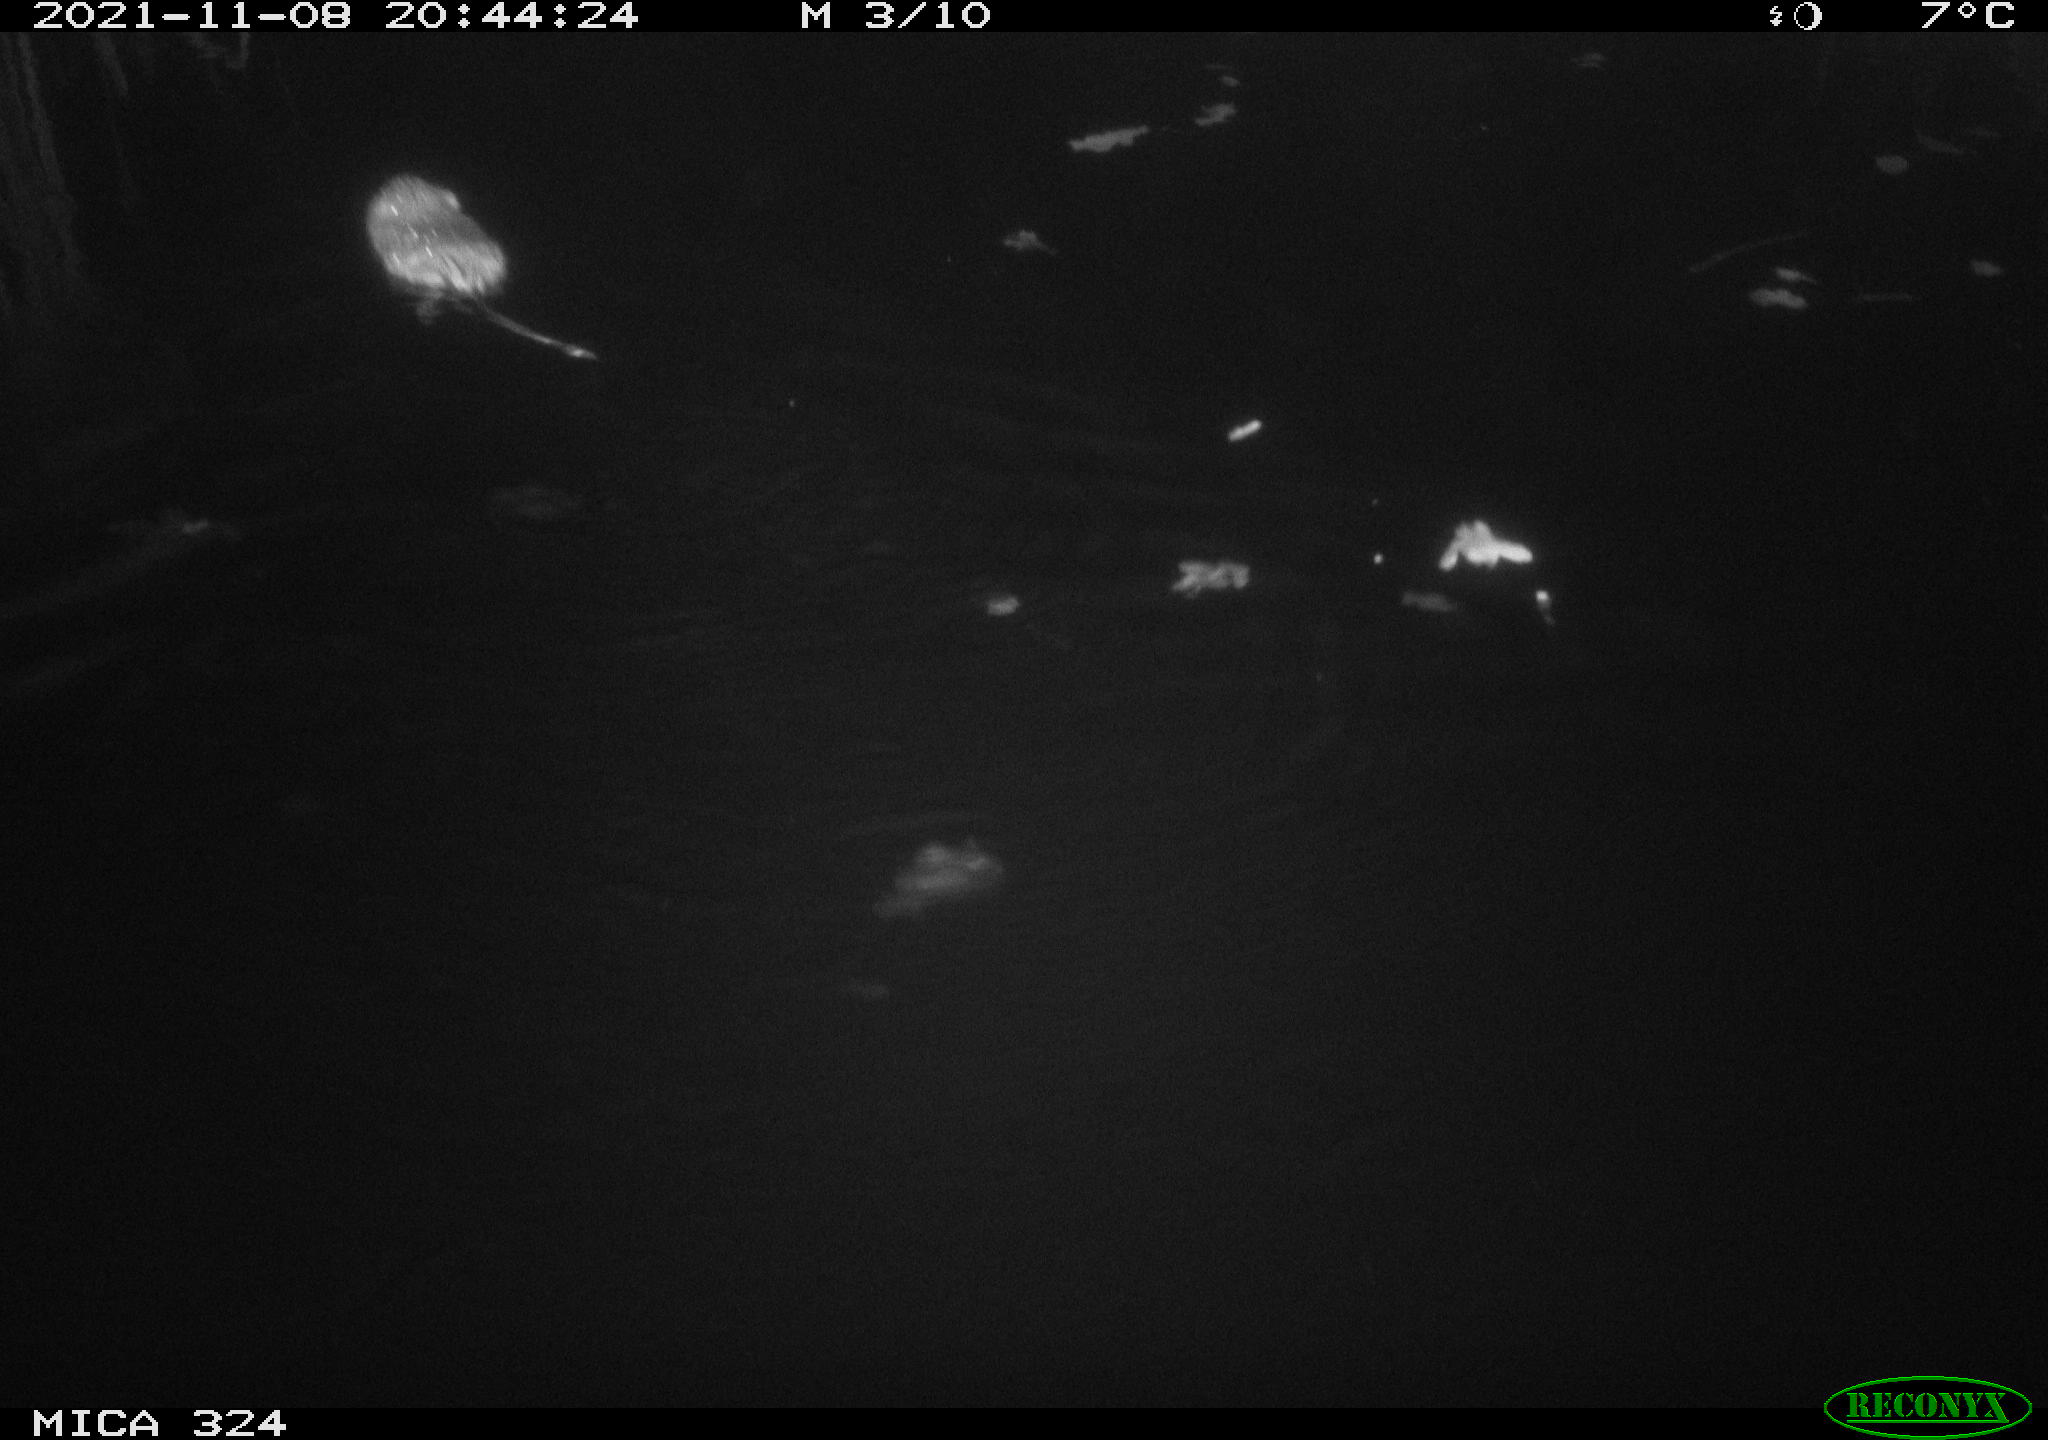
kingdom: Animalia
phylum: Chordata
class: Mammalia
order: Rodentia
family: Cricetidae
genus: Ondatra
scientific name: Ondatra zibethicus
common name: Muskrat
